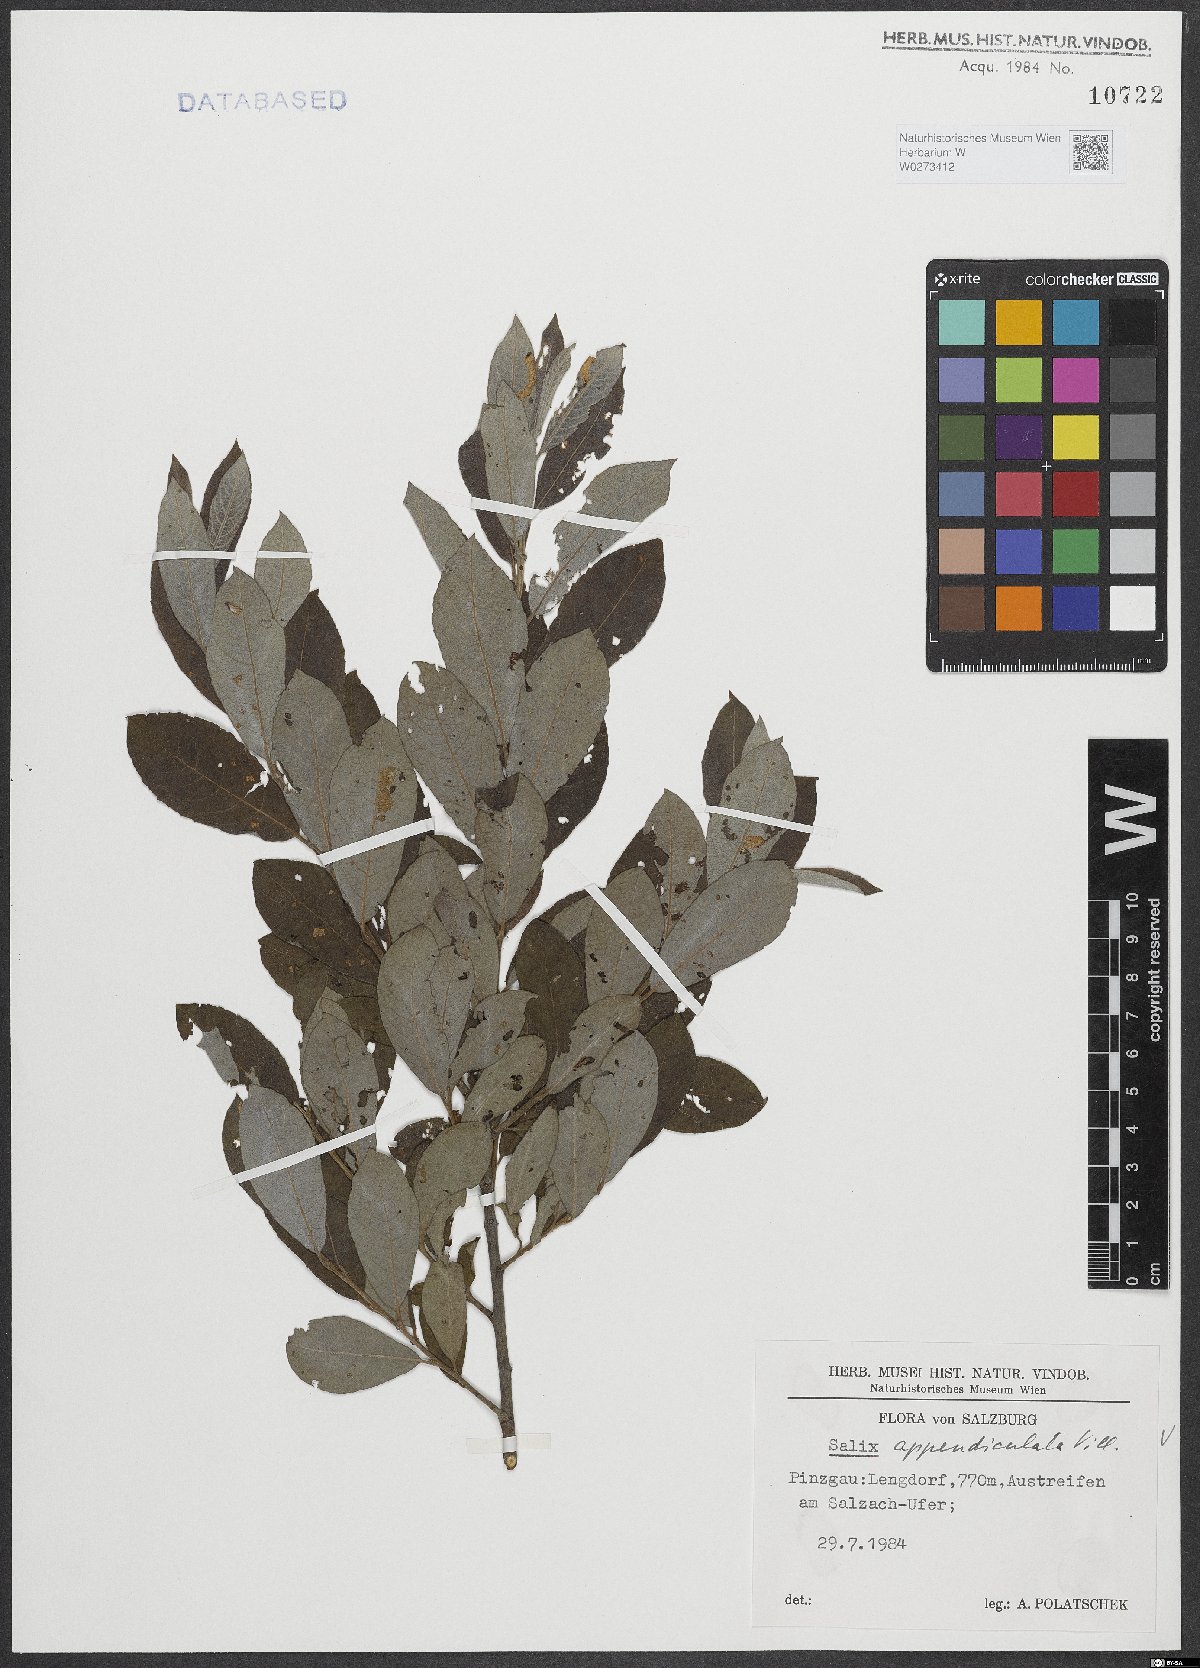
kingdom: Plantae
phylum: Tracheophyta
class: Magnoliopsida
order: Malpighiales
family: Salicaceae
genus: Salix
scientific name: Salix appendiculata
